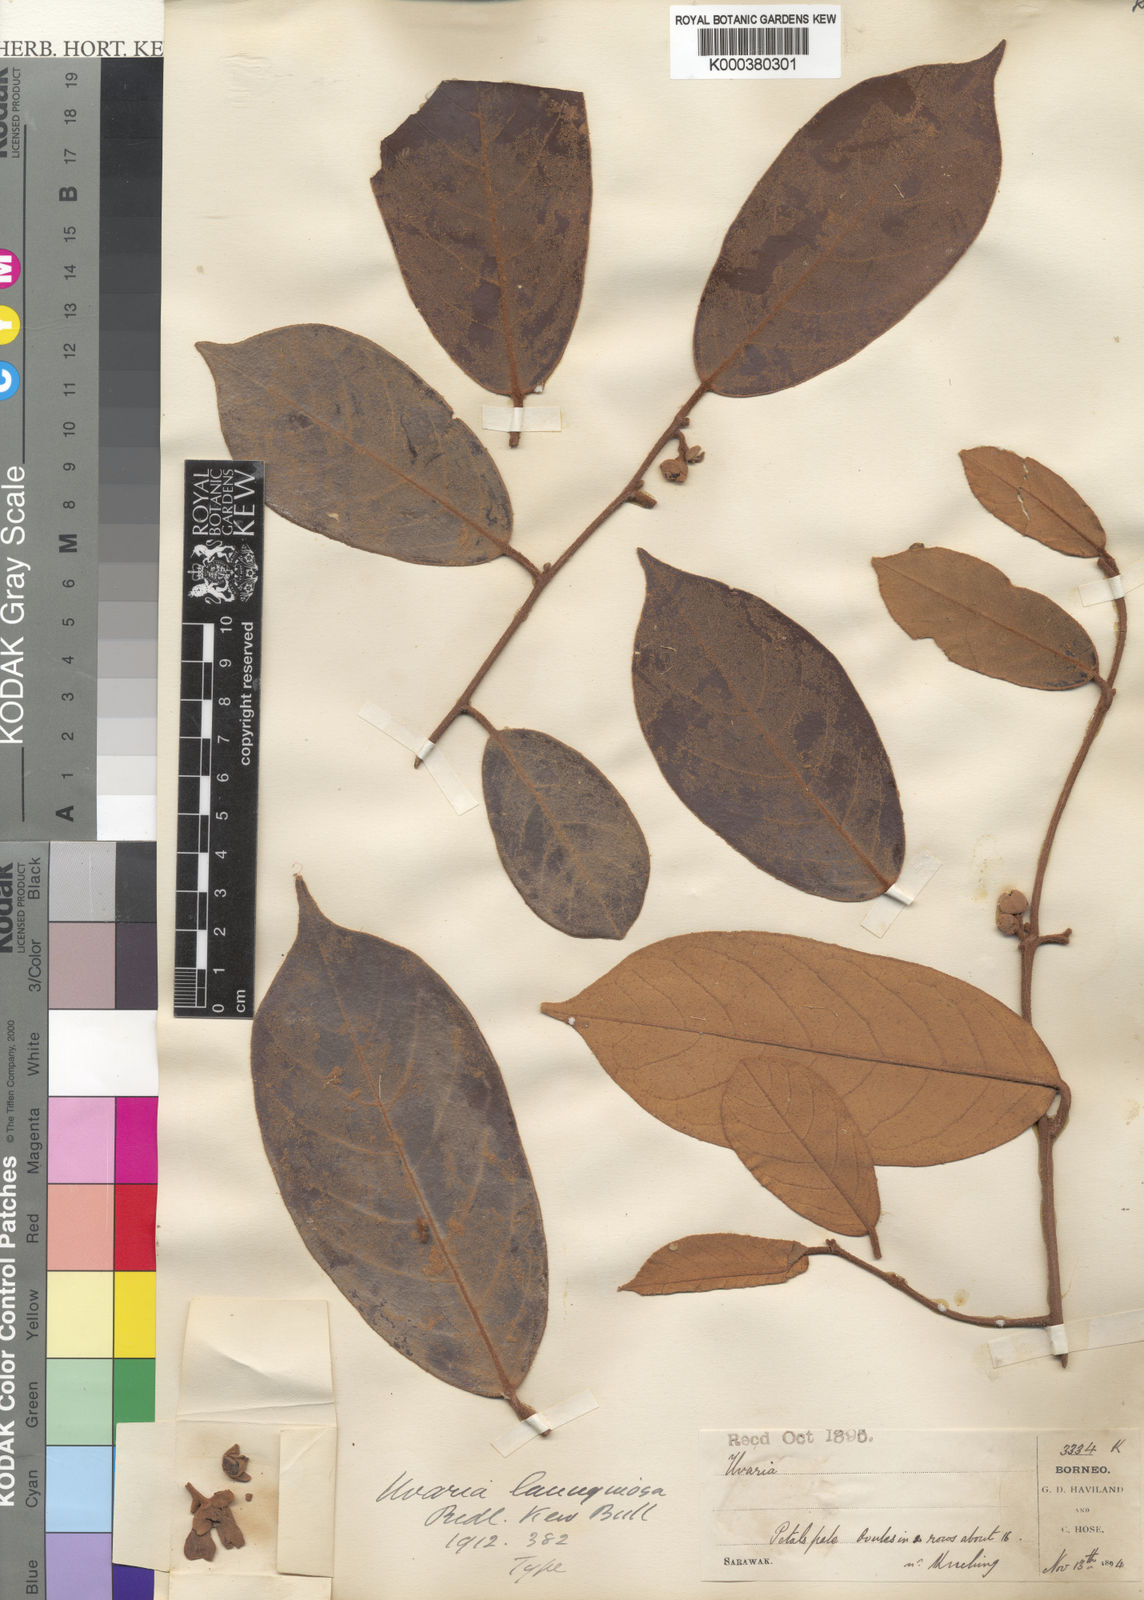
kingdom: Plantae
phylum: Tracheophyta
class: Magnoliopsida
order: Magnoliales
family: Annonaceae
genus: Uvaria
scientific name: Uvaria lanuginosa
